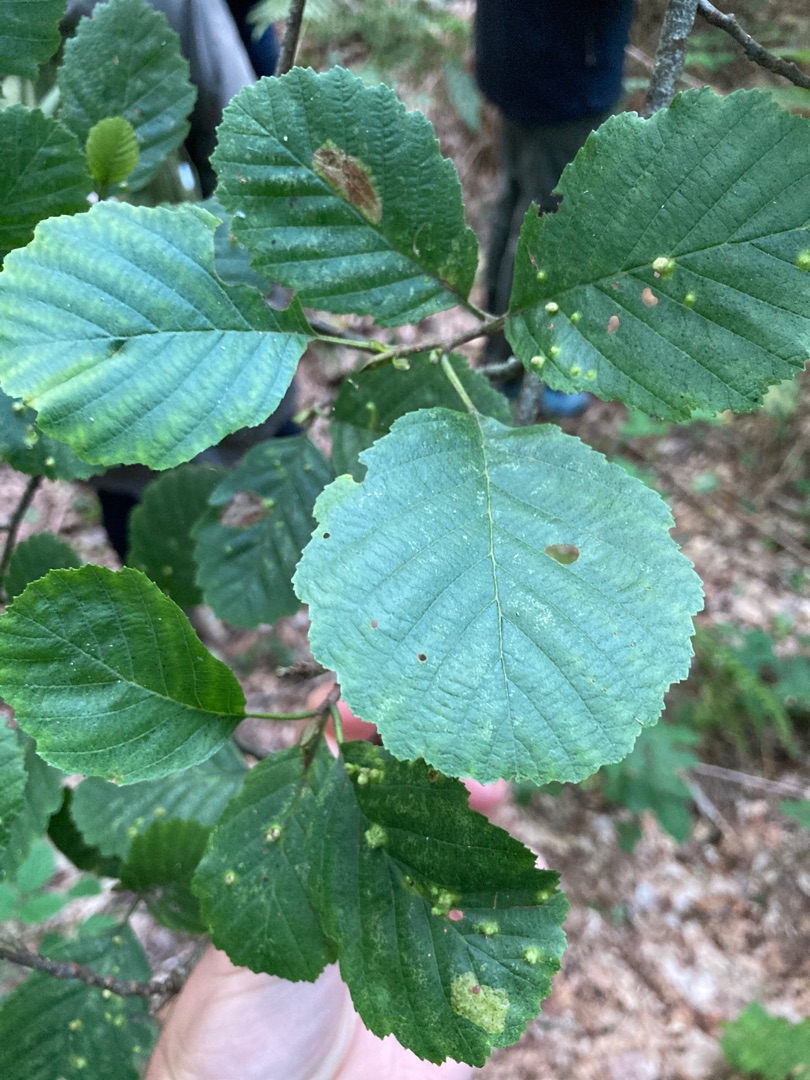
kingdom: Plantae
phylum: Tracheophyta
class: Magnoliopsida
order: Fagales
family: Betulaceae
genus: Alnus
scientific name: Alnus glutinosa
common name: Rød-el
